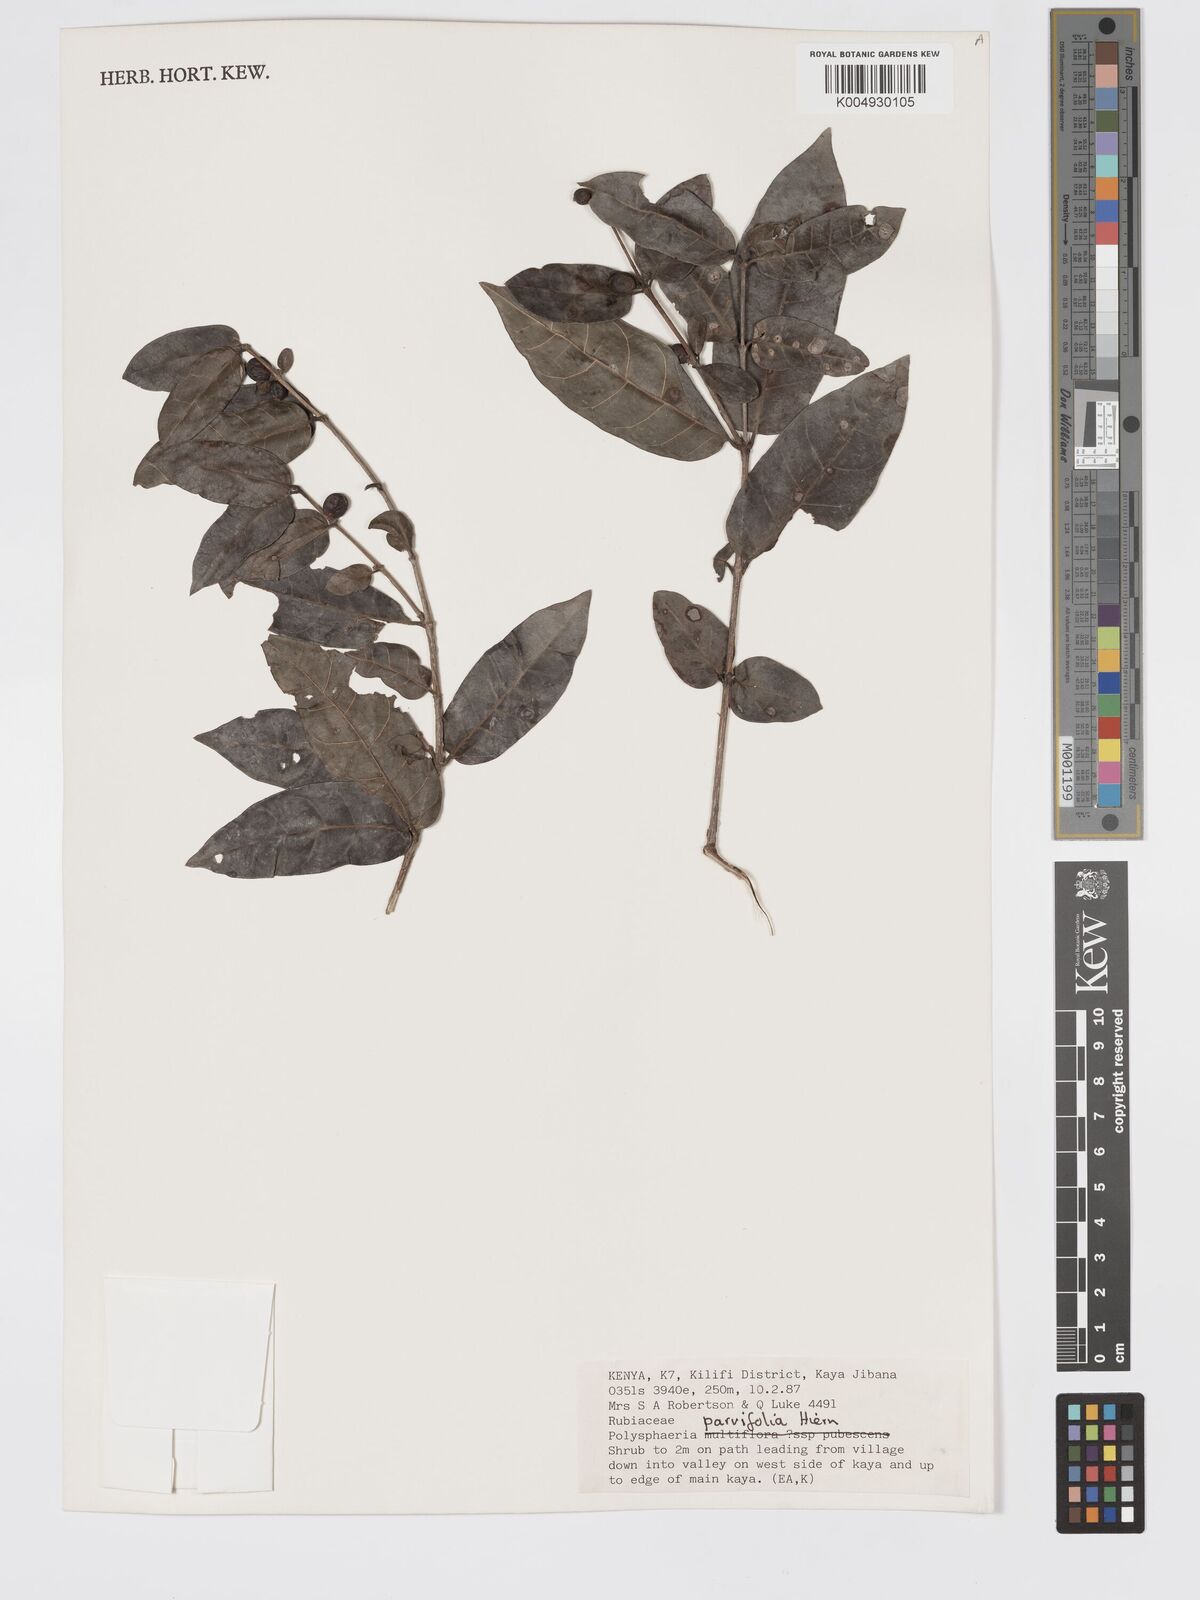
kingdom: Plantae
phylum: Tracheophyta
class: Magnoliopsida
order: Gentianales
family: Rubiaceae
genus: Polysphaeria
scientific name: Polysphaeria parvifolia
